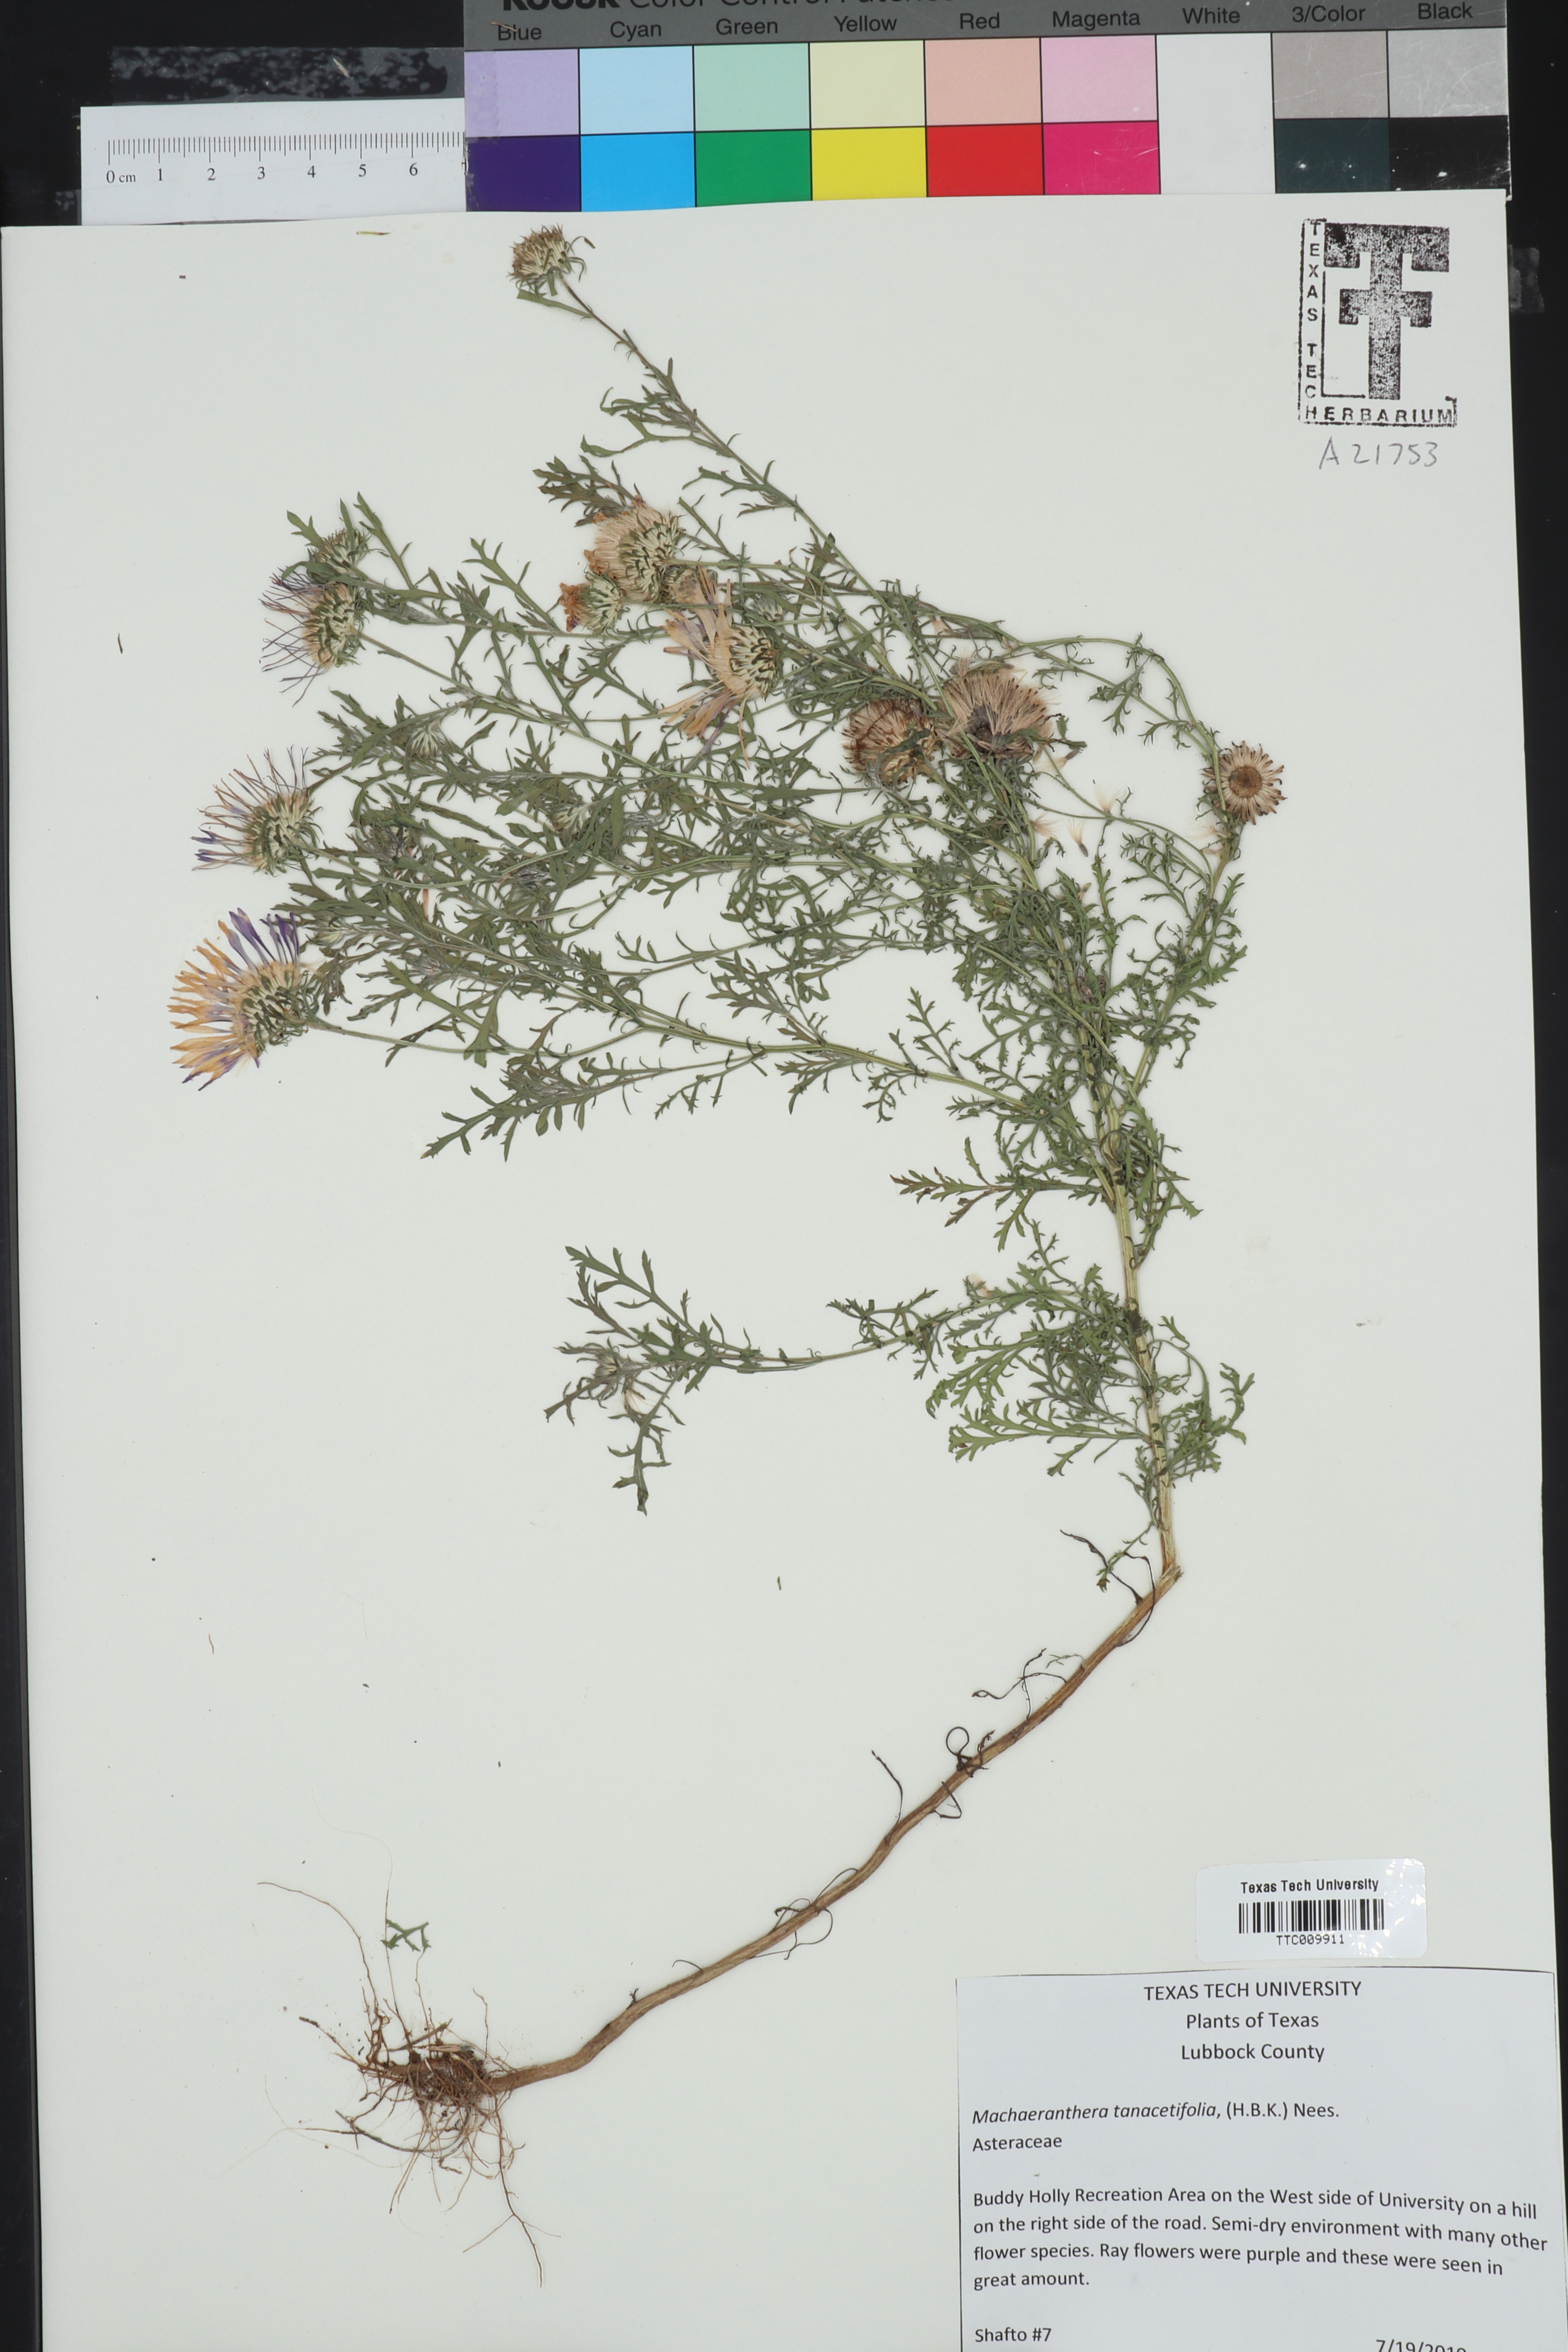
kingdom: Plantae
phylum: Tracheophyta
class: Magnoliopsida
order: Asterales
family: Asteraceae
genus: Machaeranthera
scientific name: Machaeranthera tanacetifolia
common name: Tansy-aster
